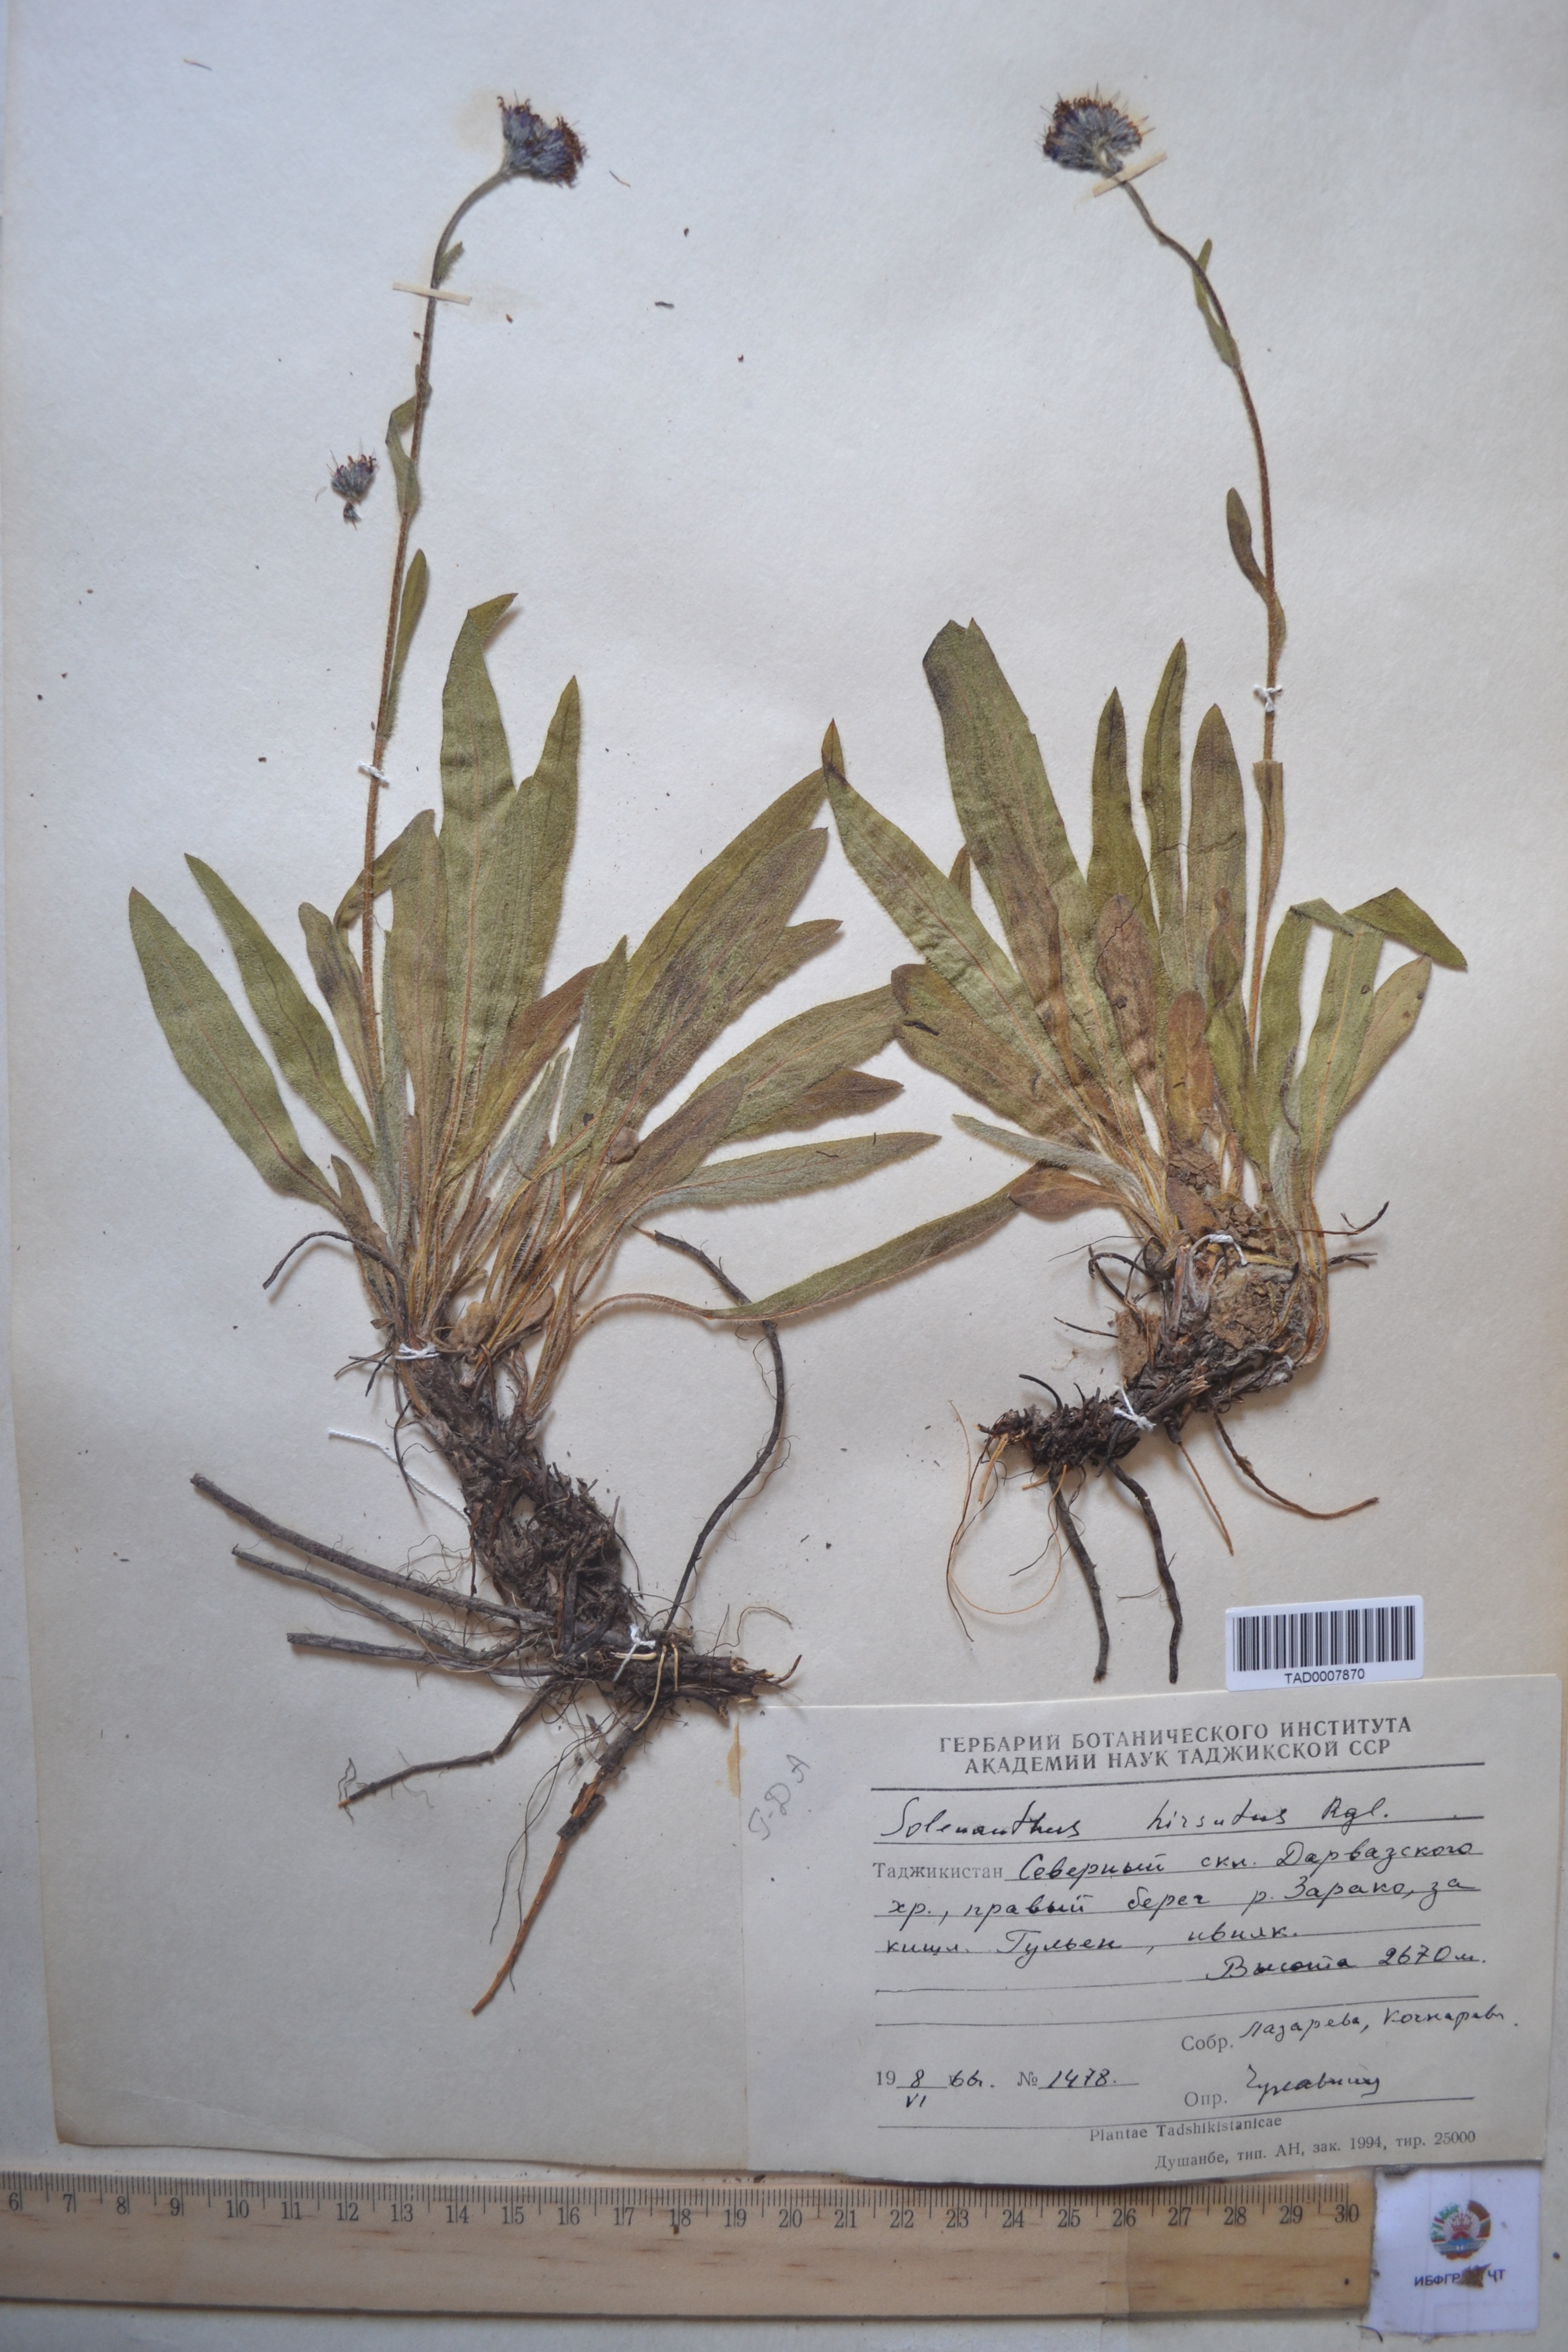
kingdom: Plantae
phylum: Tracheophyta
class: Magnoliopsida
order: Boraginales
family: Boraginaceae
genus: Solenanthus
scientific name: Solenanthus hirsutus
